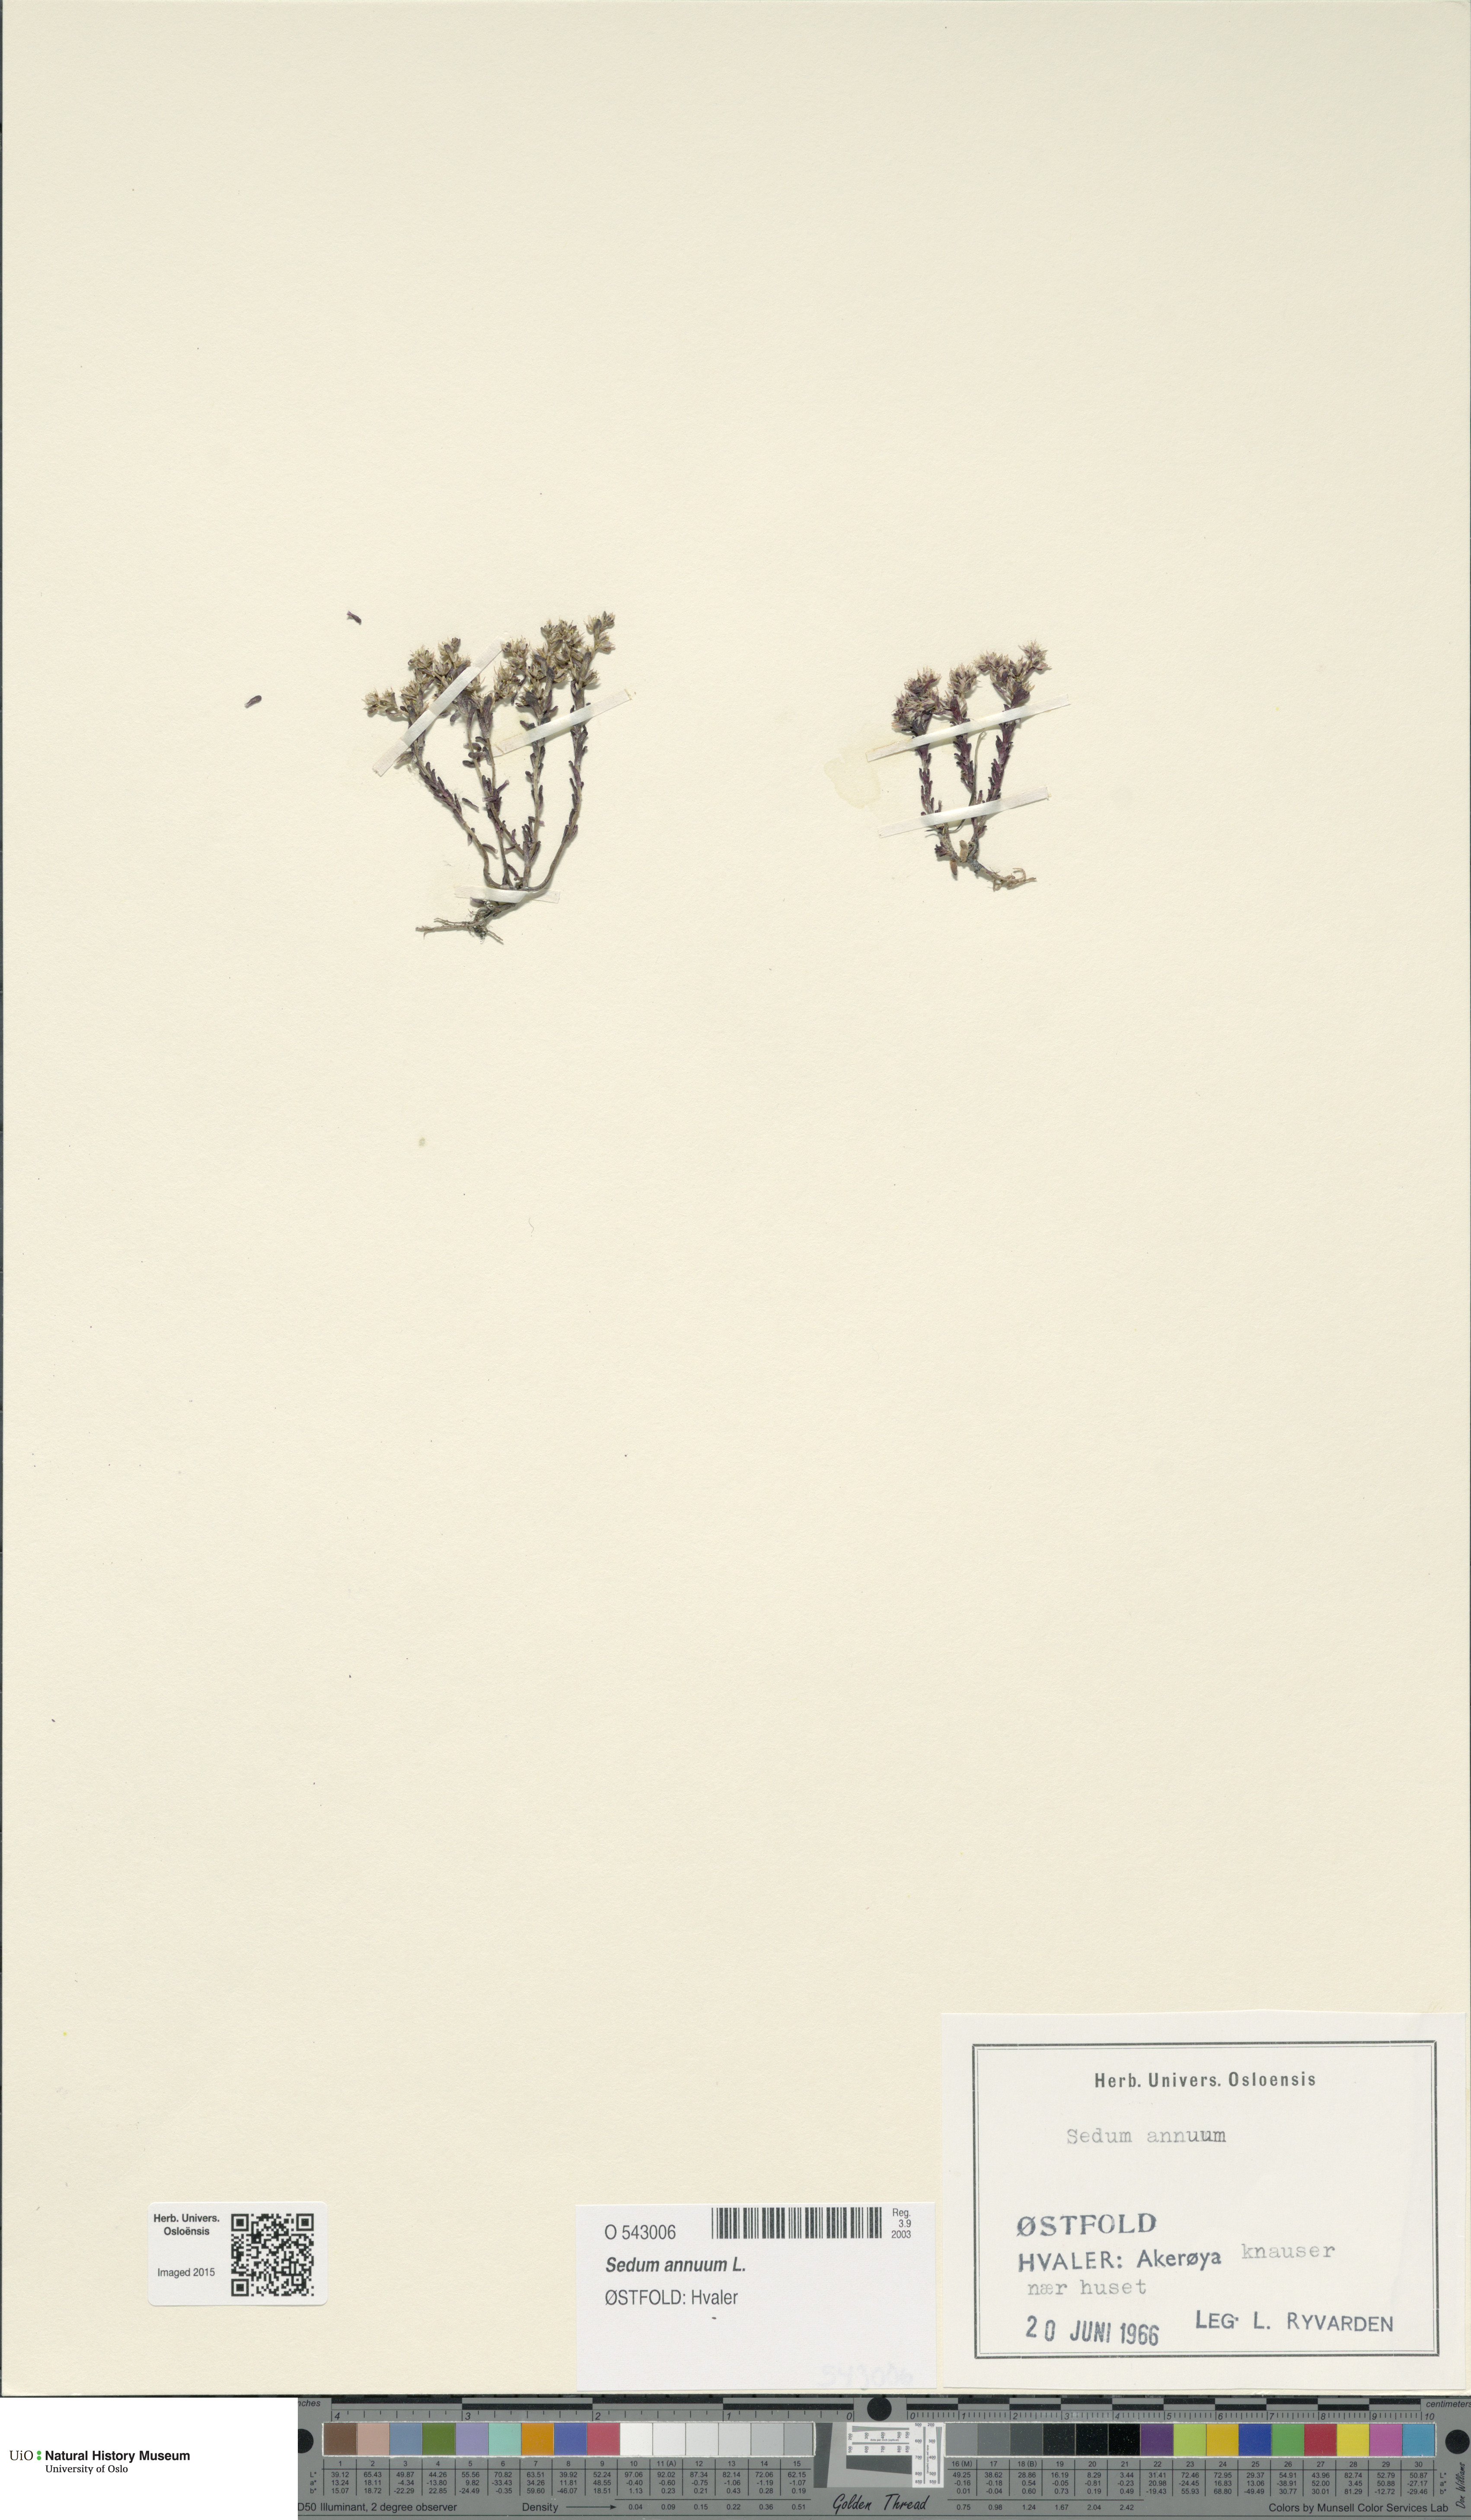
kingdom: Plantae
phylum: Tracheophyta
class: Magnoliopsida
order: Saxifragales
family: Crassulaceae
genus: Sedum
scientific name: Sedum annuum
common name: Annual stonecrop
